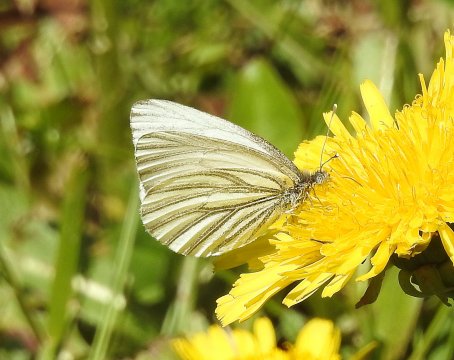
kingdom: Animalia
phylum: Arthropoda
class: Insecta
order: Lepidoptera
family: Pieridae
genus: Pieris
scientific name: Pieris oleracea
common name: Mustard White
